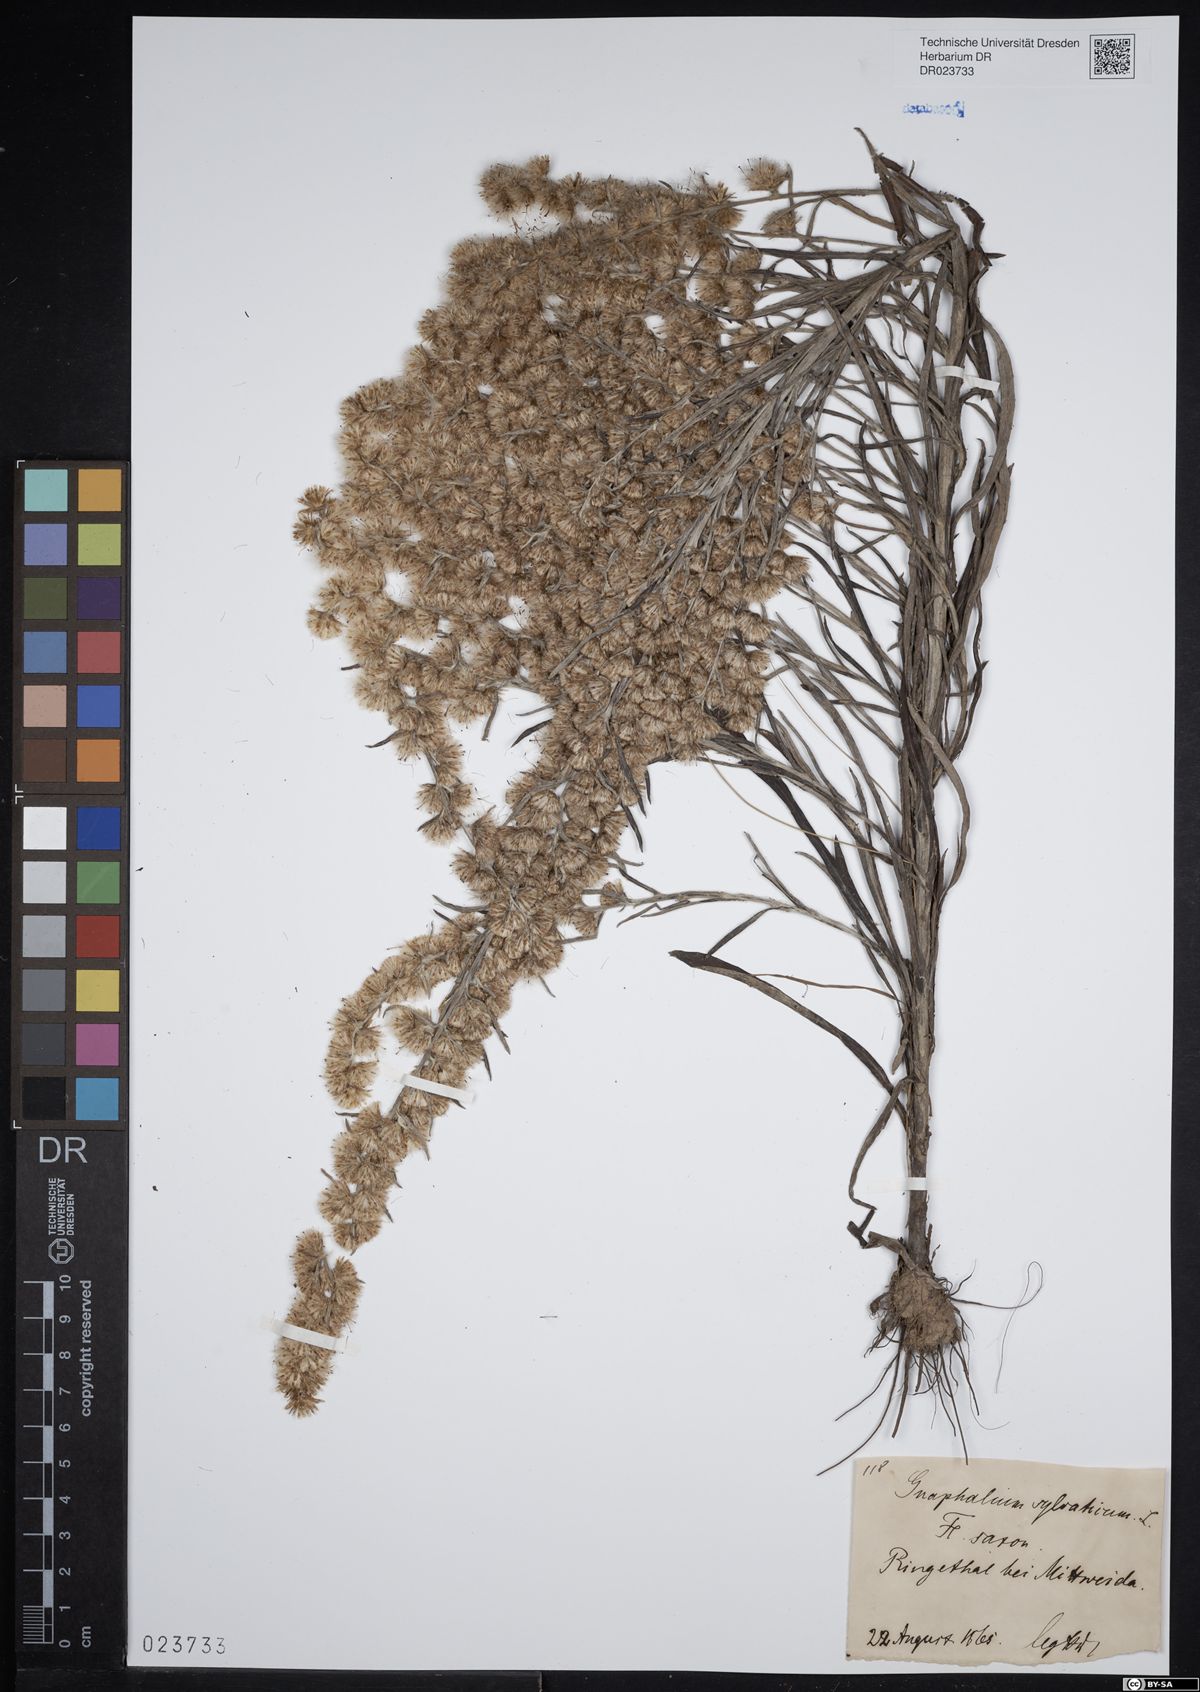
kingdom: Plantae
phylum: Tracheophyta
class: Magnoliopsida
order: Asterales
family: Asteraceae
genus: Omalotheca
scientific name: Omalotheca sylvatica
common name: Heath cudweed
